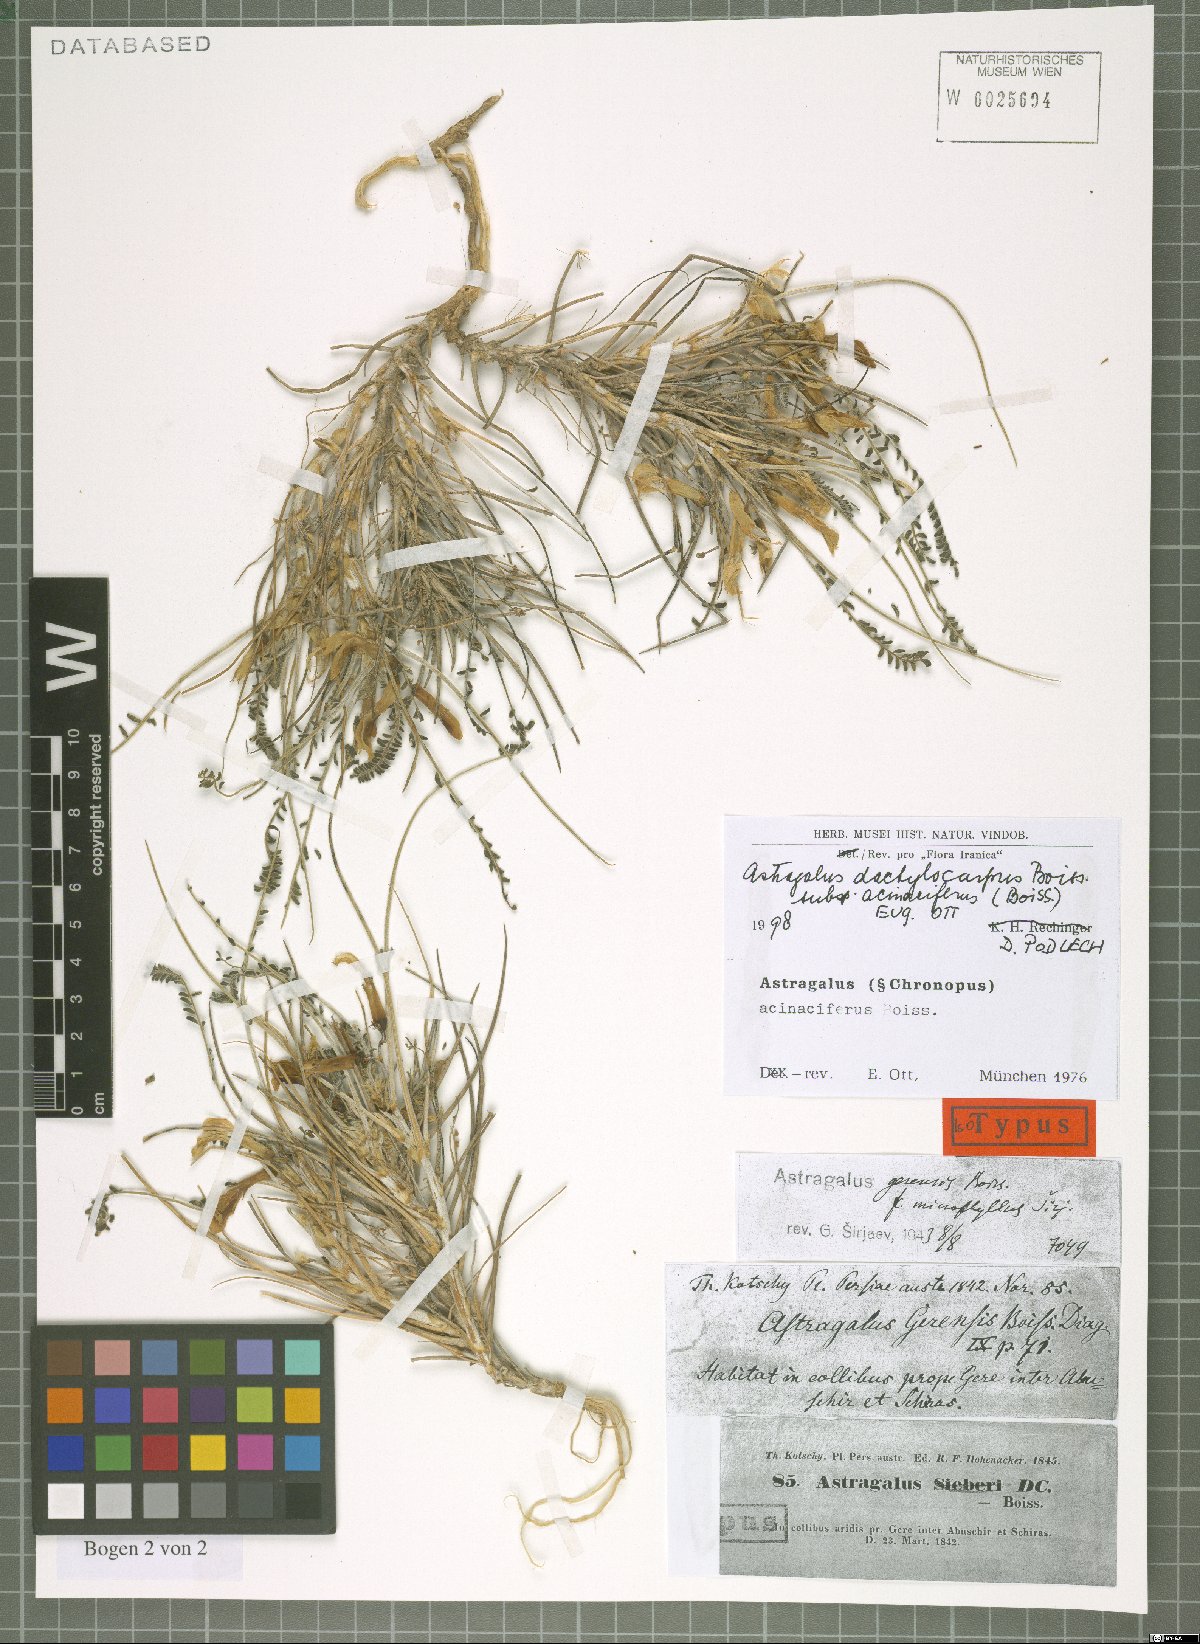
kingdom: Plantae
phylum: Tracheophyta
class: Magnoliopsida
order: Fabales
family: Fabaceae
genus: Astragalus
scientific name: Astragalus dactylocarpus
